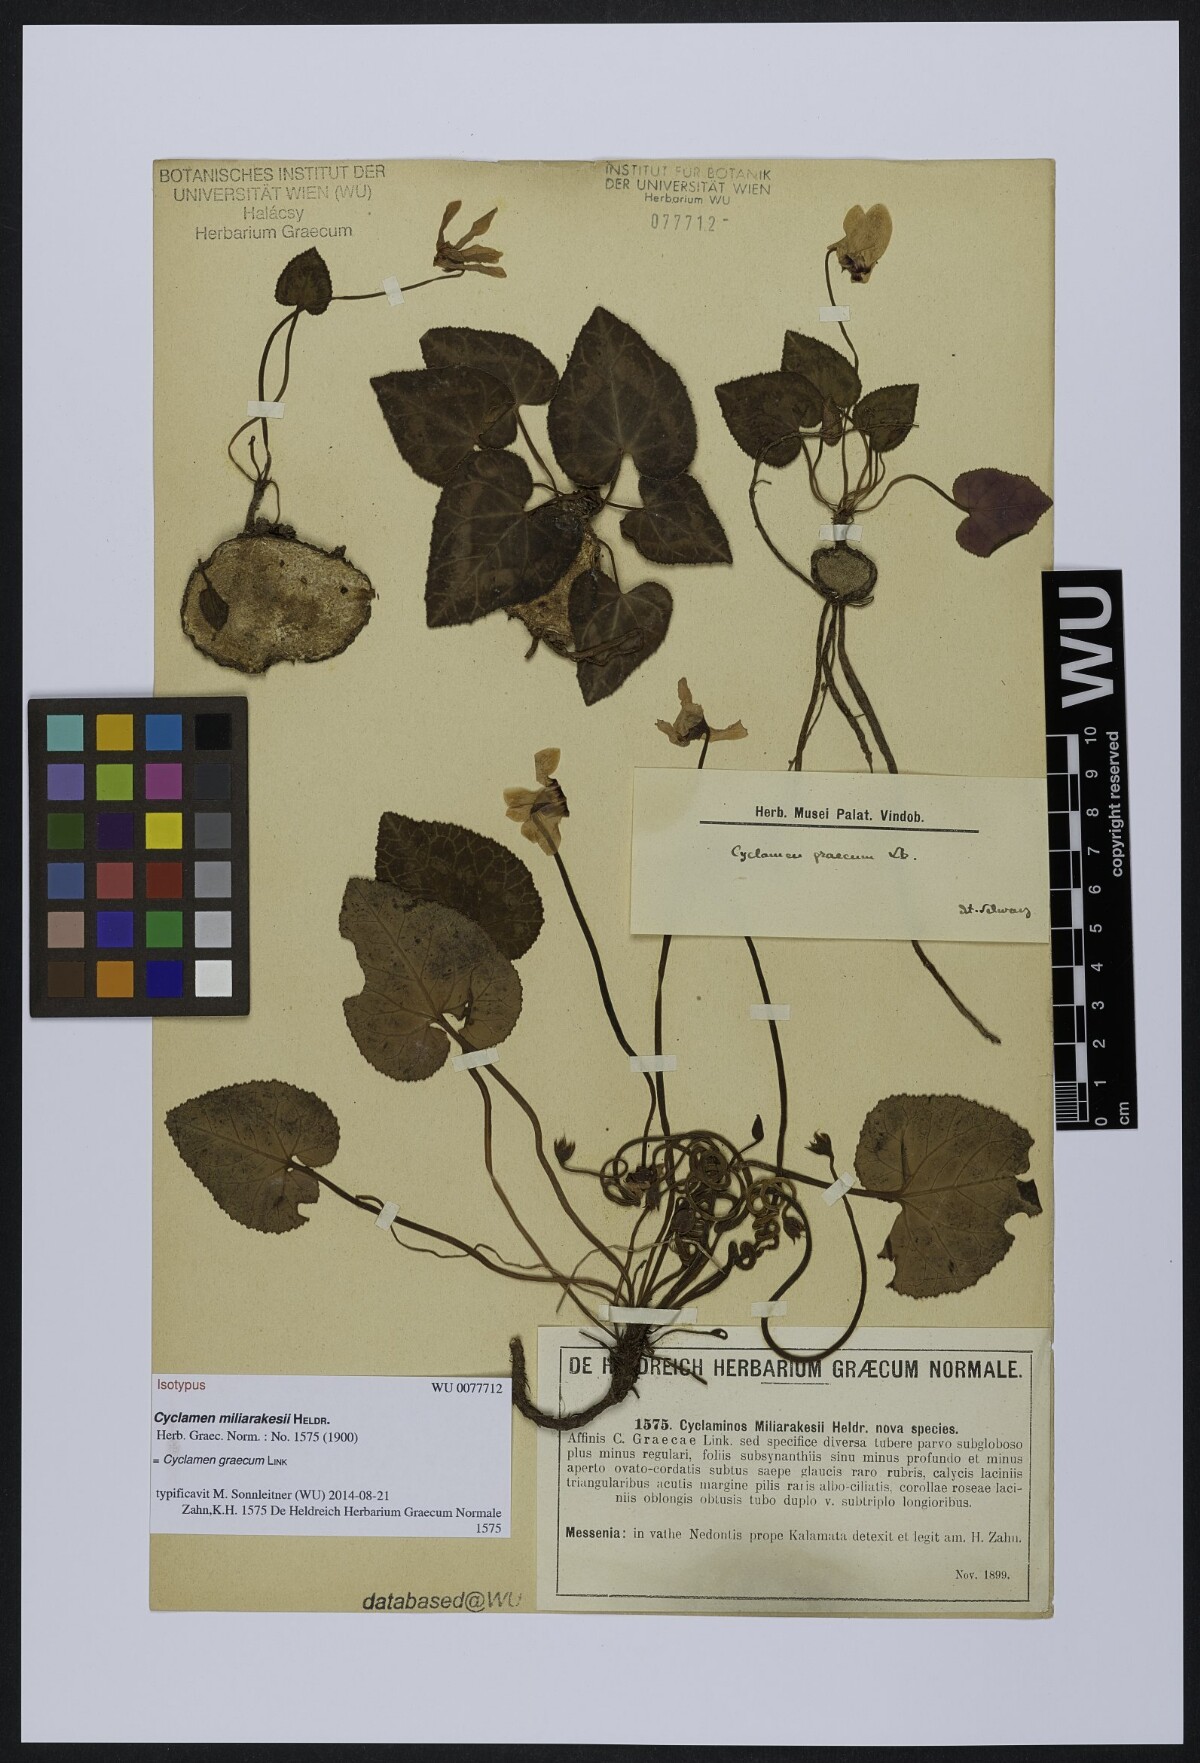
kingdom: Plantae
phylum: Tracheophyta
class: Magnoliopsida
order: Ericales
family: Primulaceae
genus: Cyclamen
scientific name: Cyclamen graecum
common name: Greek cyclamen
